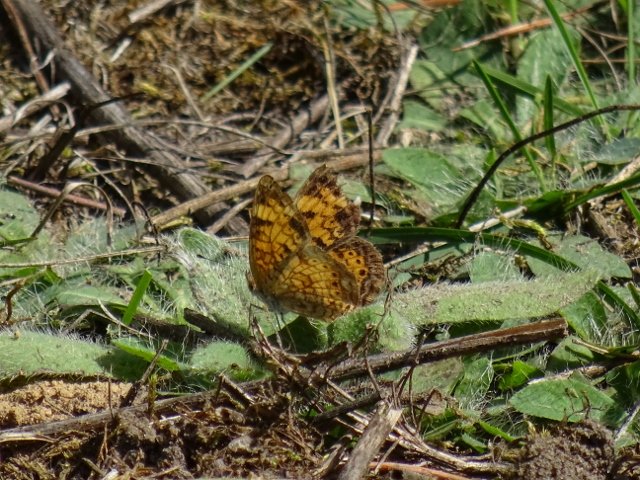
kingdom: Animalia
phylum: Arthropoda
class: Insecta
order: Lepidoptera
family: Nymphalidae
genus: Phyciodes
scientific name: Phyciodes tharos
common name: Pearl Crescent
